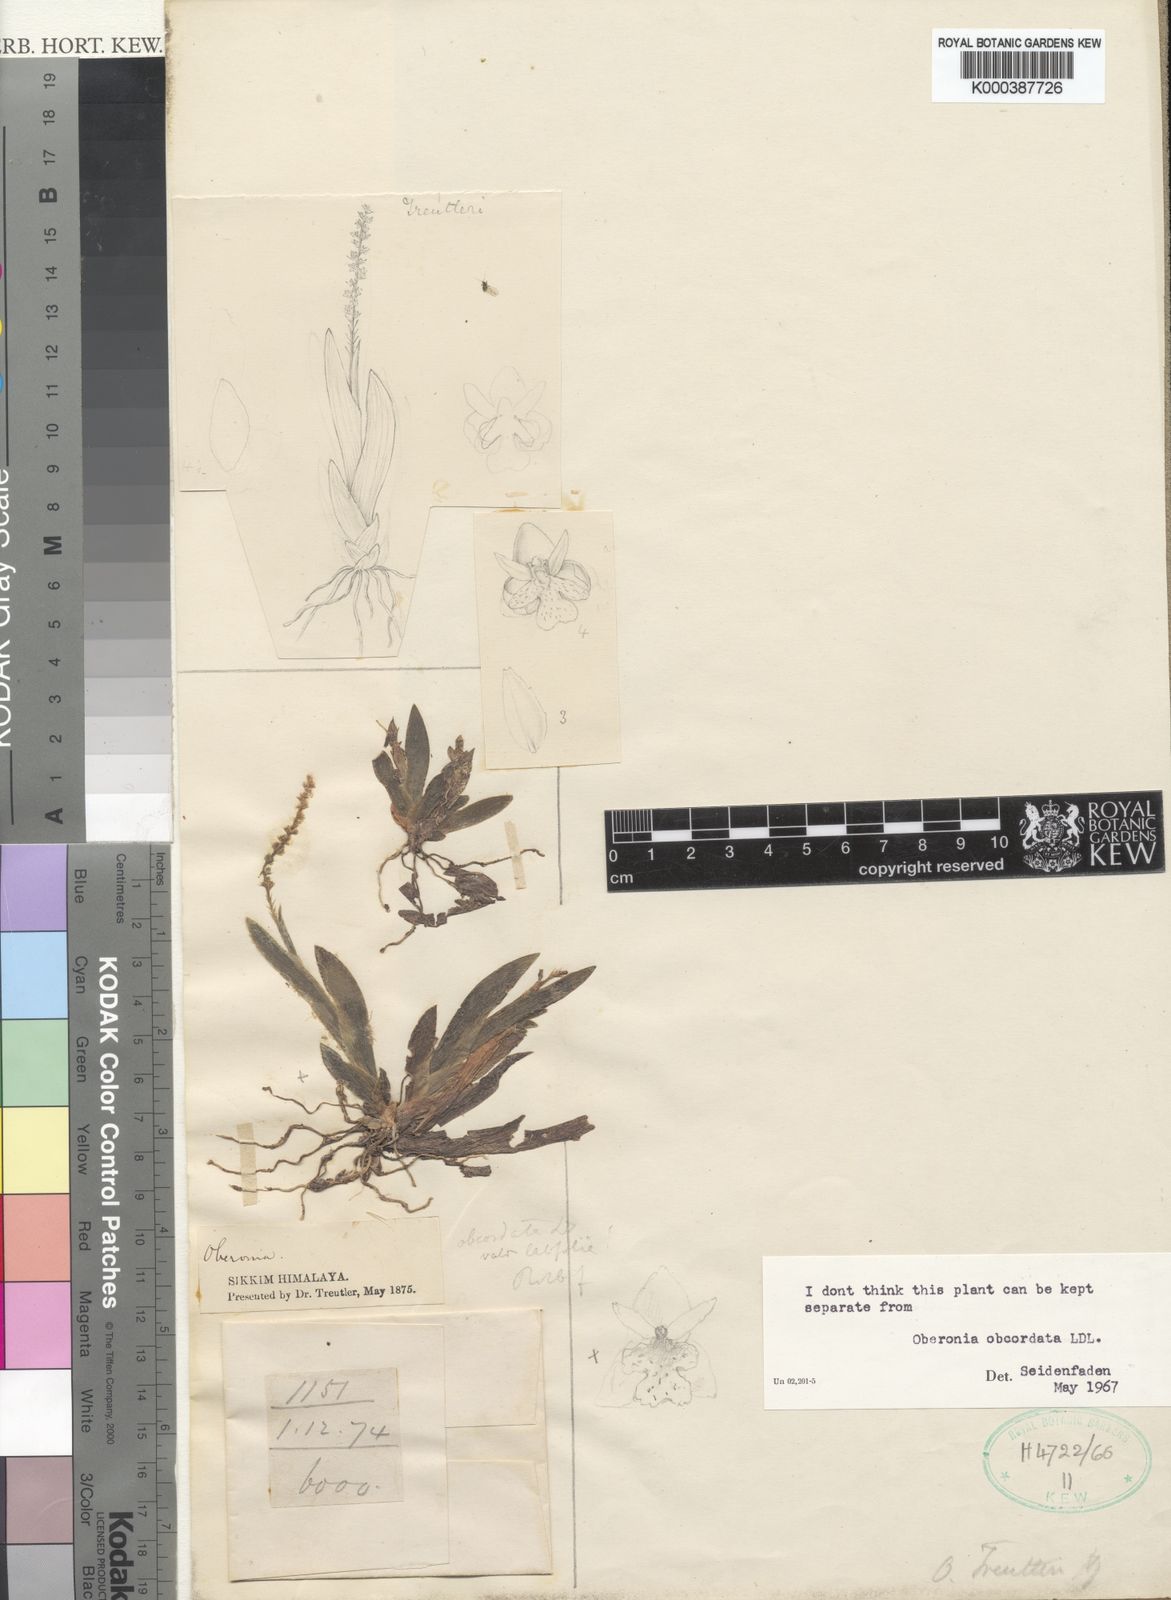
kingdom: Plantae
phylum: Tracheophyta
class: Liliopsida
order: Asparagales
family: Orchidaceae
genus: Oberonia
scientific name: Oberonia obcordata
